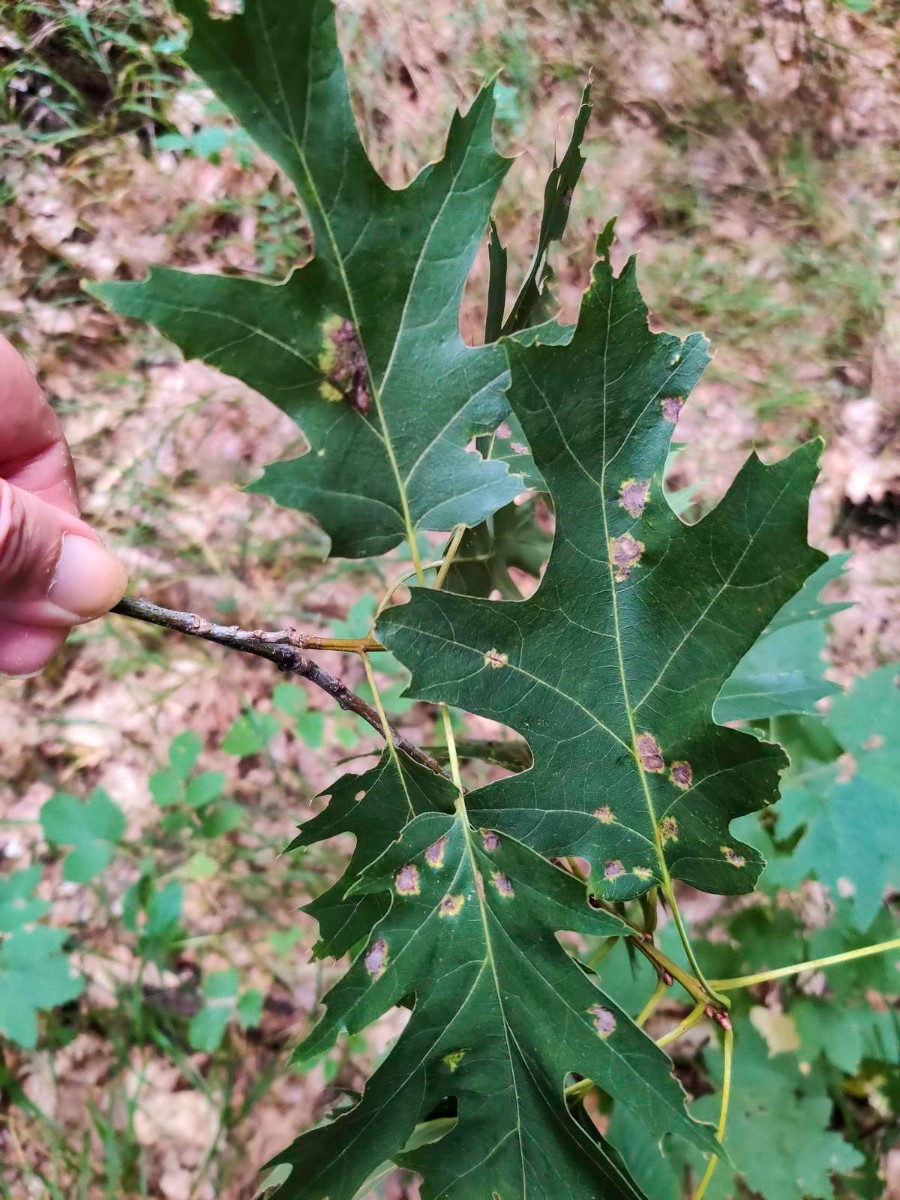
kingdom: Fungi
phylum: Ascomycota
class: Taphrinomycetes
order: Taphrinales
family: Taphrinaceae
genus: Taphrina
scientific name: Taphrina caerulescens
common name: Oak leaf blister
